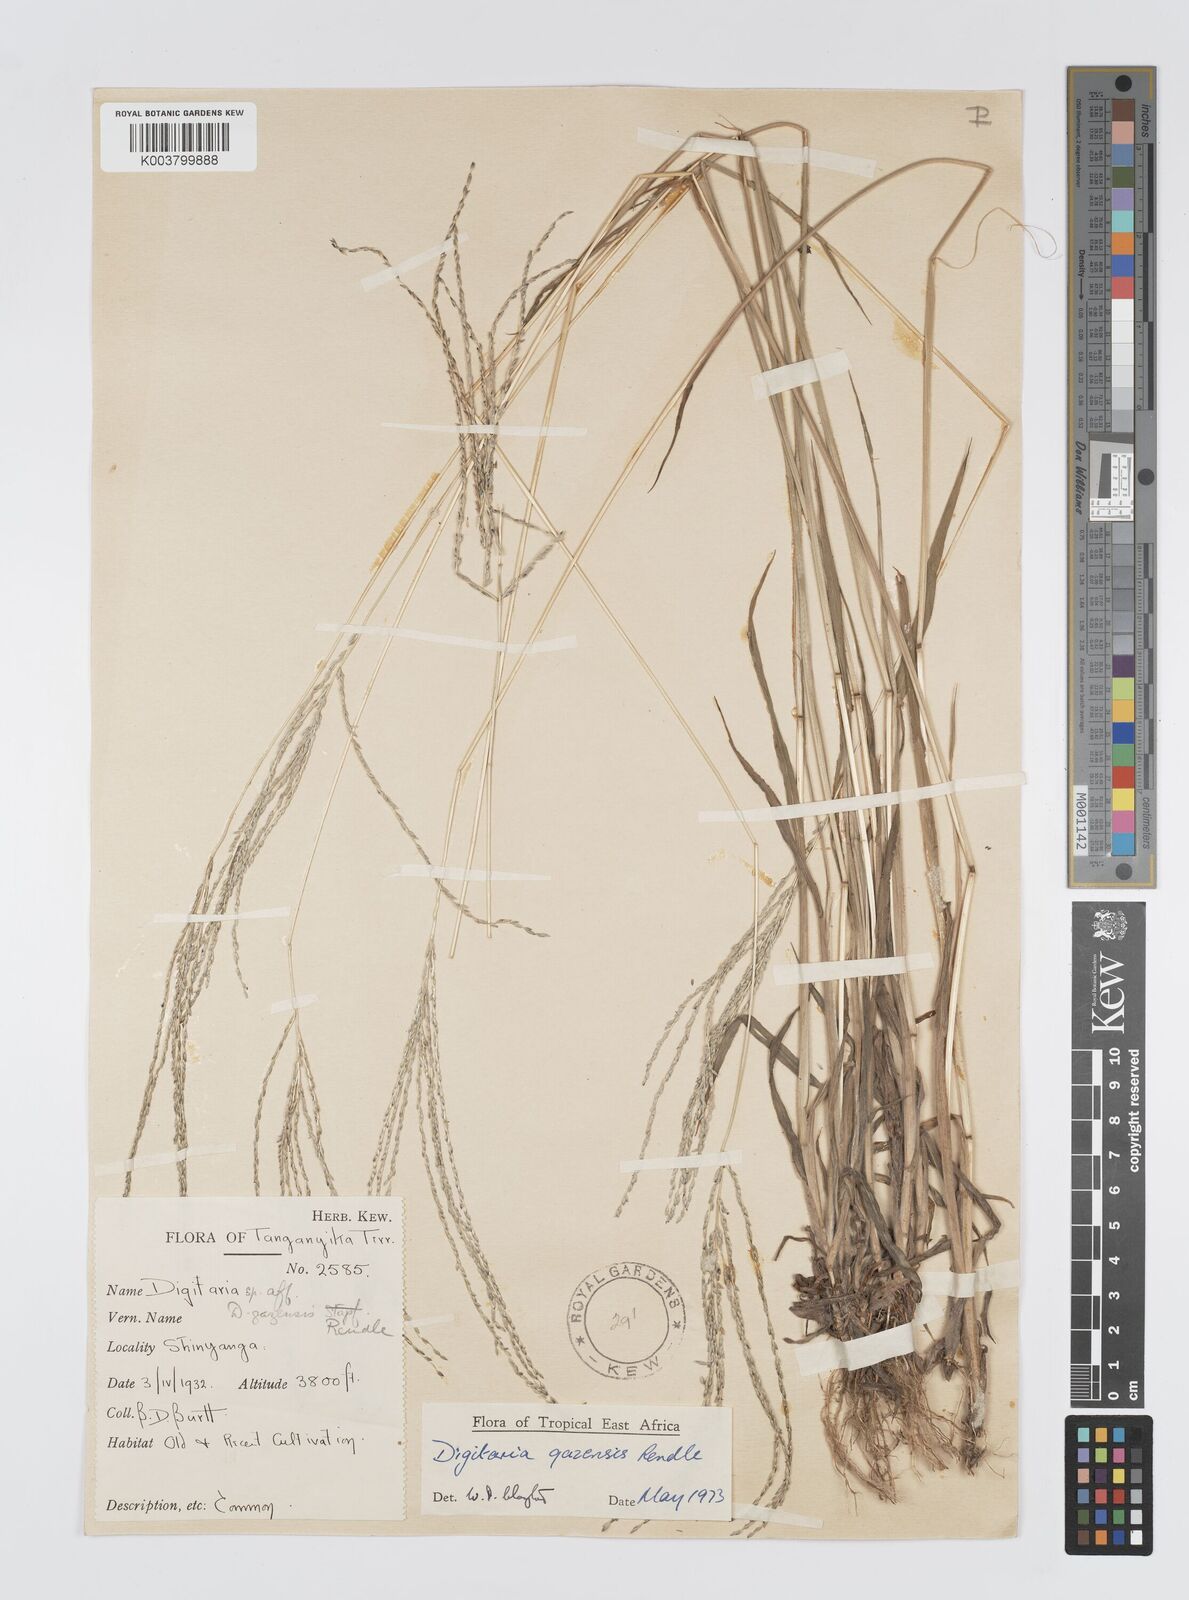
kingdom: Plantae
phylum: Tracheophyta
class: Liliopsida
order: Poales
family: Poaceae
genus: Digitaria
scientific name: Digitaria gazensis
